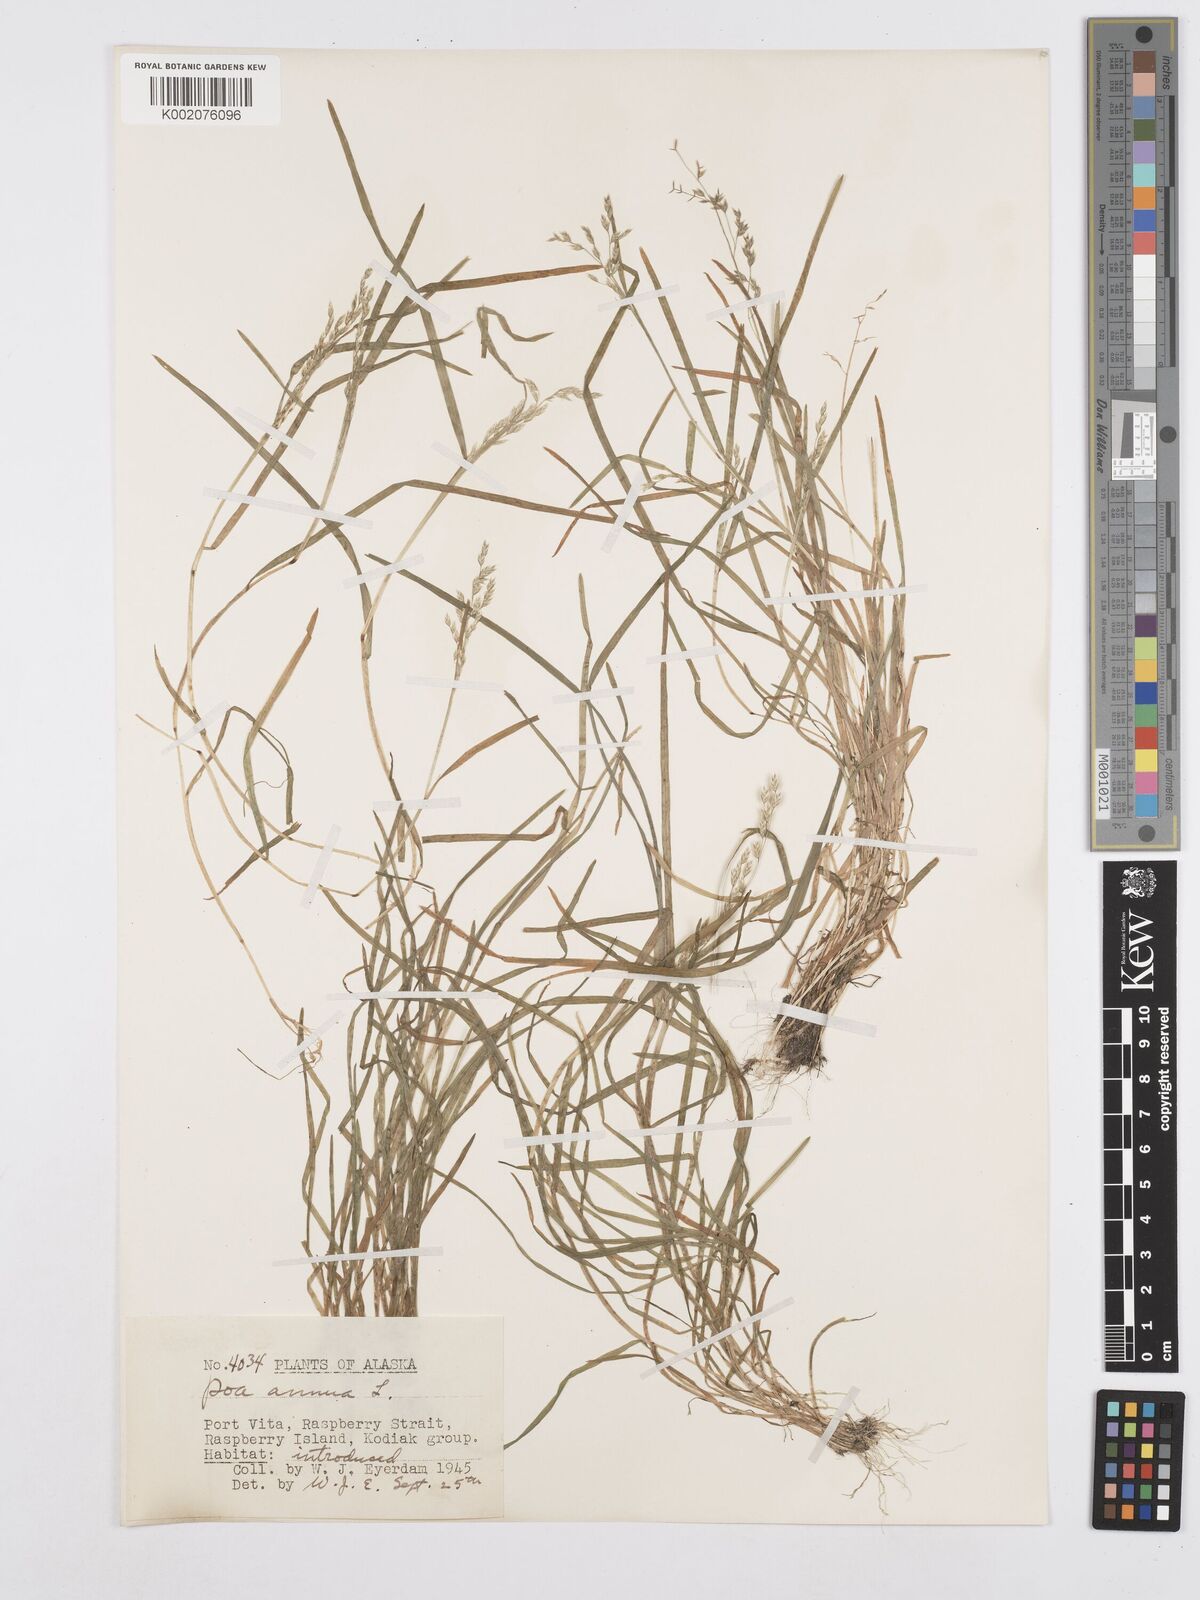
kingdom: Plantae
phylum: Tracheophyta
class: Liliopsida
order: Poales
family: Poaceae
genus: Poa
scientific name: Poa annua
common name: Annual bluegrass
